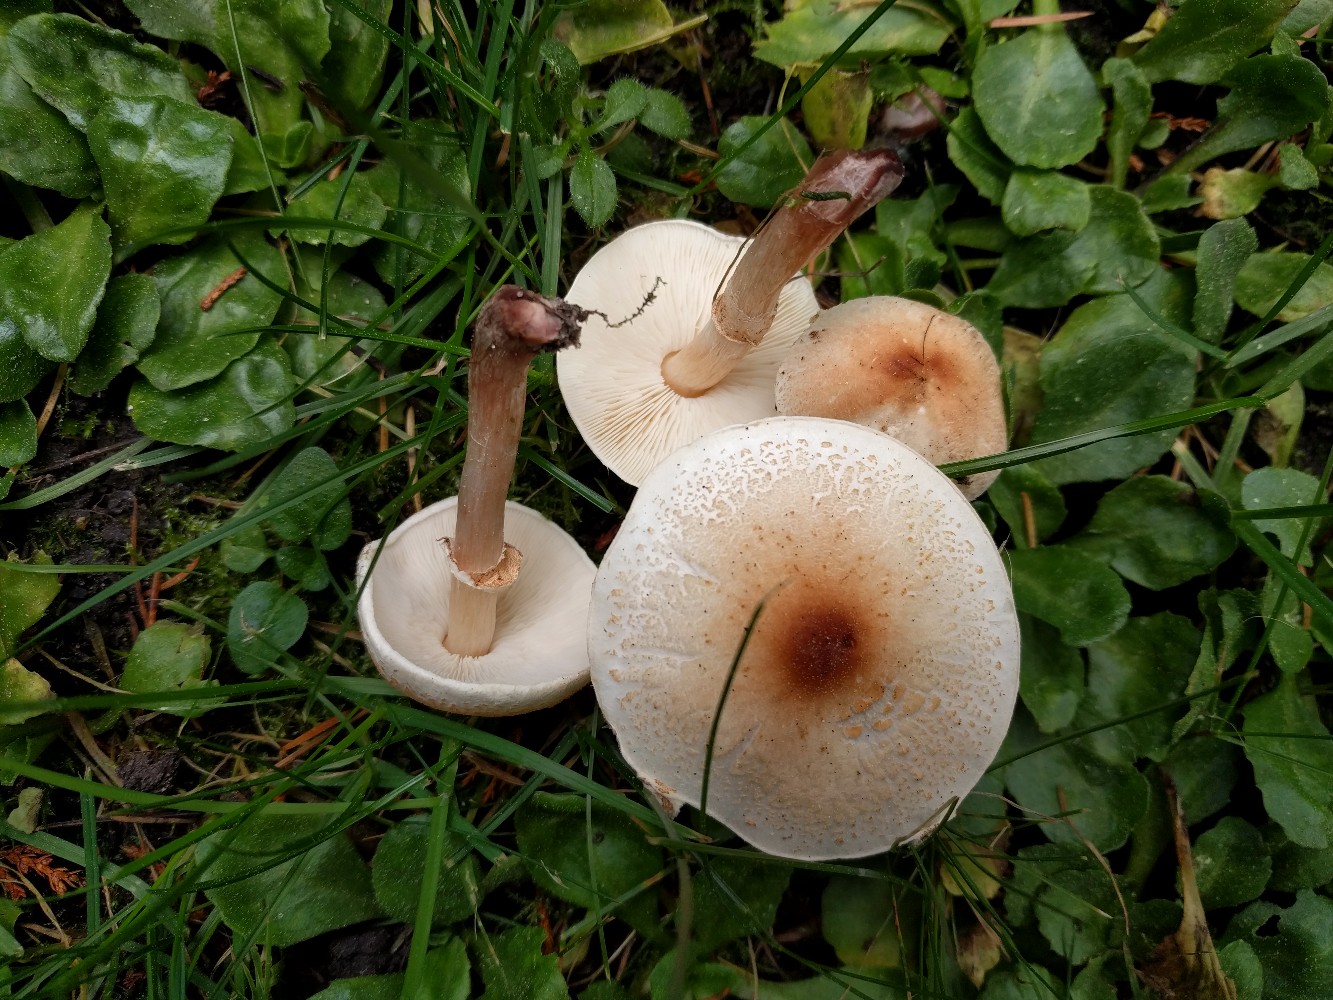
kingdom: Fungi
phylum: Basidiomycota
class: Agaricomycetes
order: Agaricales
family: Agaricaceae
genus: Lepiota
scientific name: Lepiota cristata
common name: stinkende parasolhat
